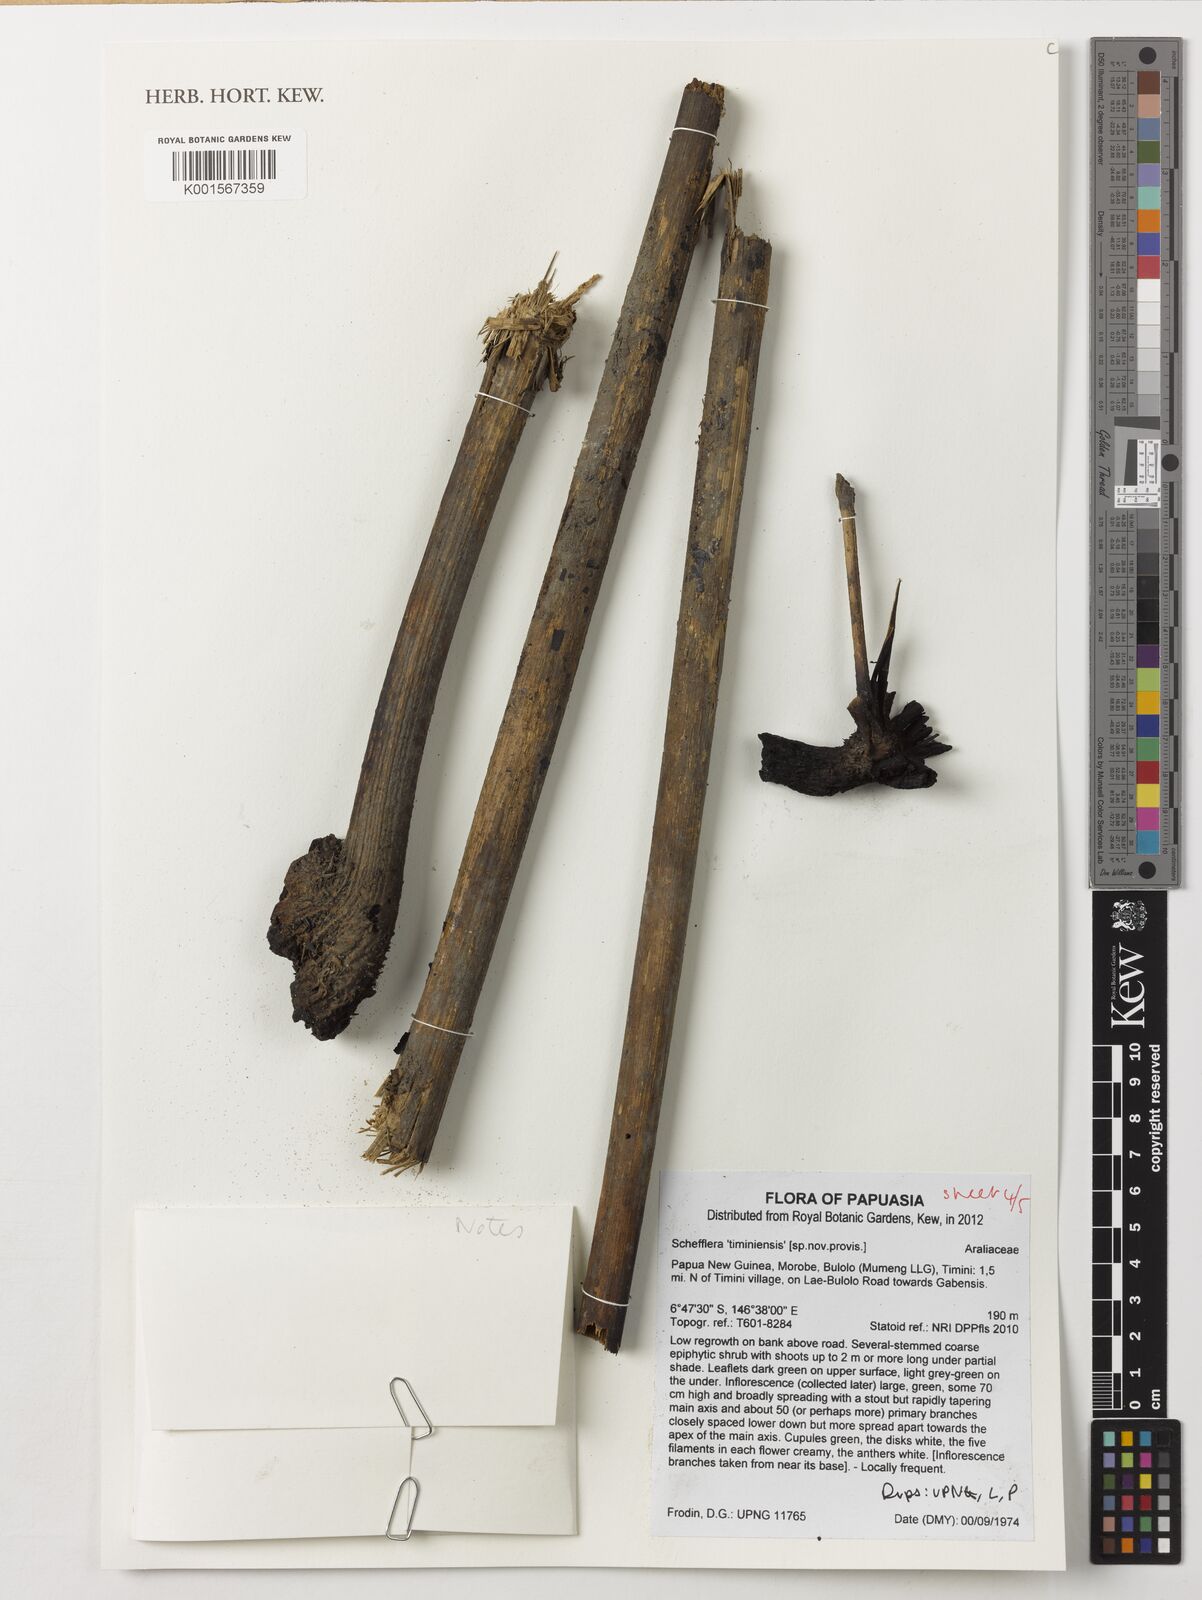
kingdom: Plantae
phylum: Tracheophyta
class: Magnoliopsida
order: Apiales
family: Araliaceae
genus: Schefflera
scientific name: Schefflera
